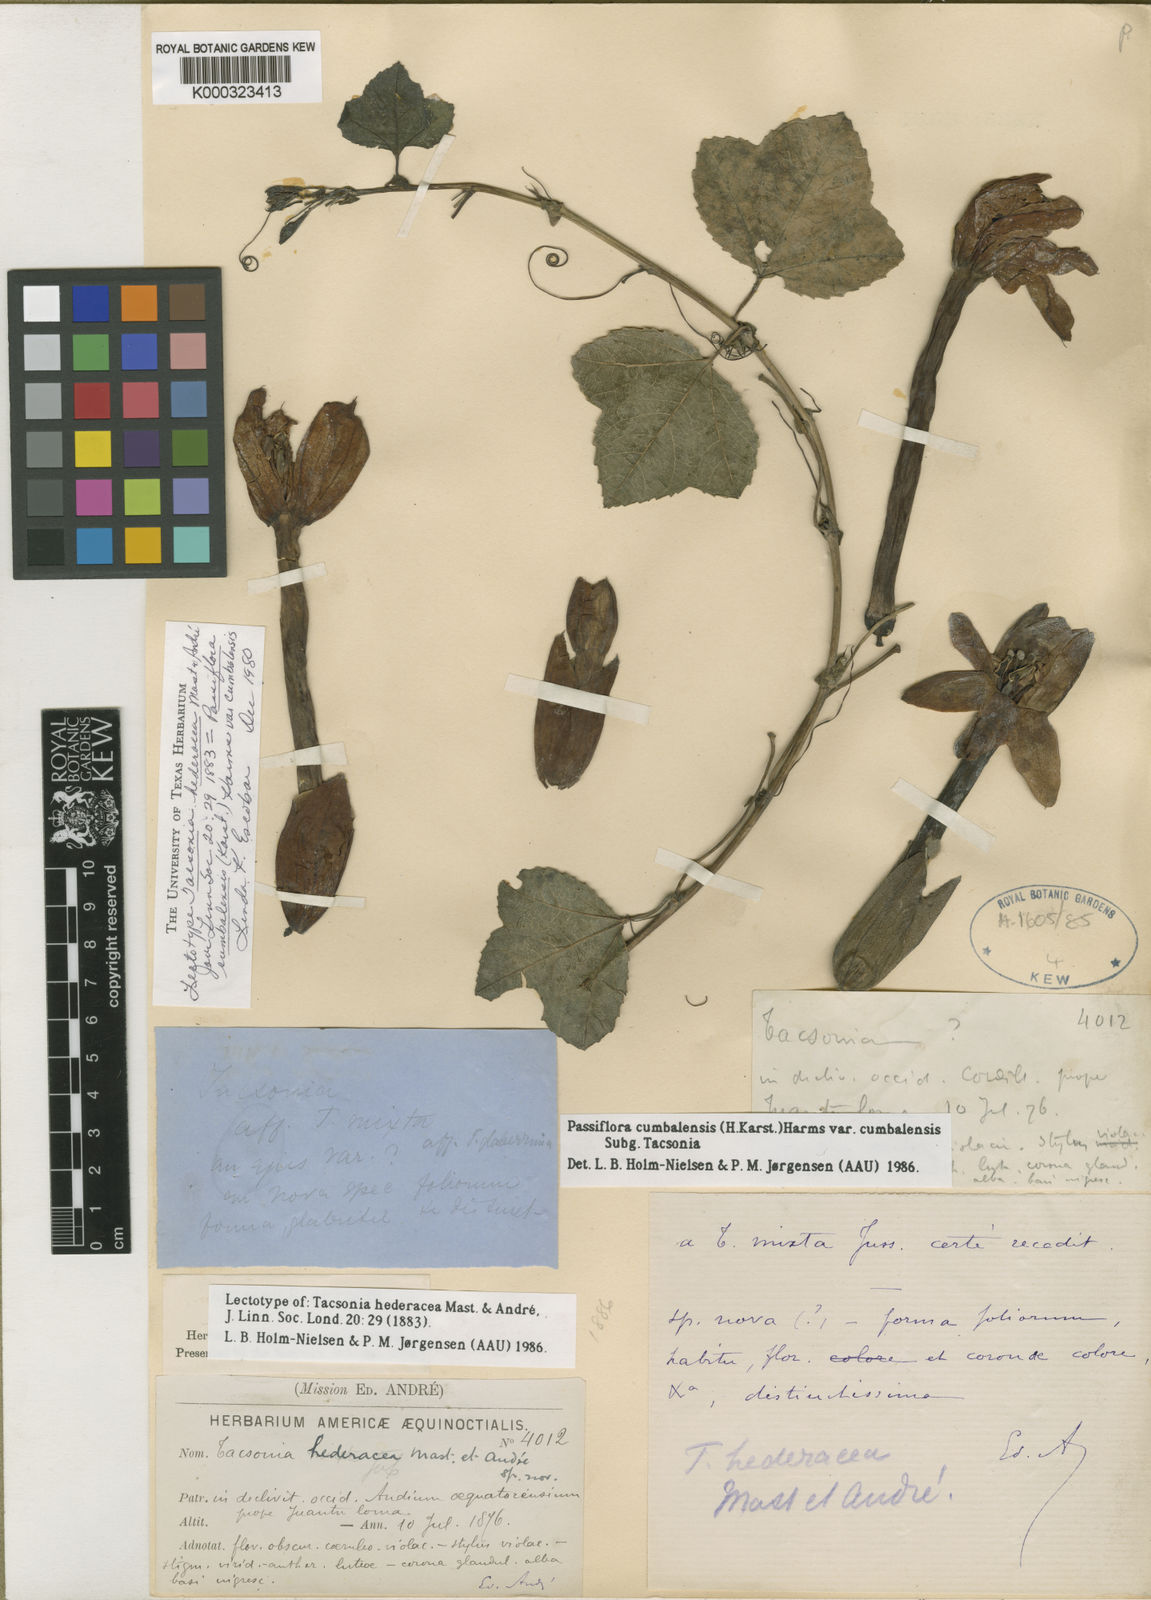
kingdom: Plantae
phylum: Tracheophyta
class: Magnoliopsida
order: Malpighiales
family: Passifloraceae
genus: Passiflora
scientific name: Passiflora cumbalensis
